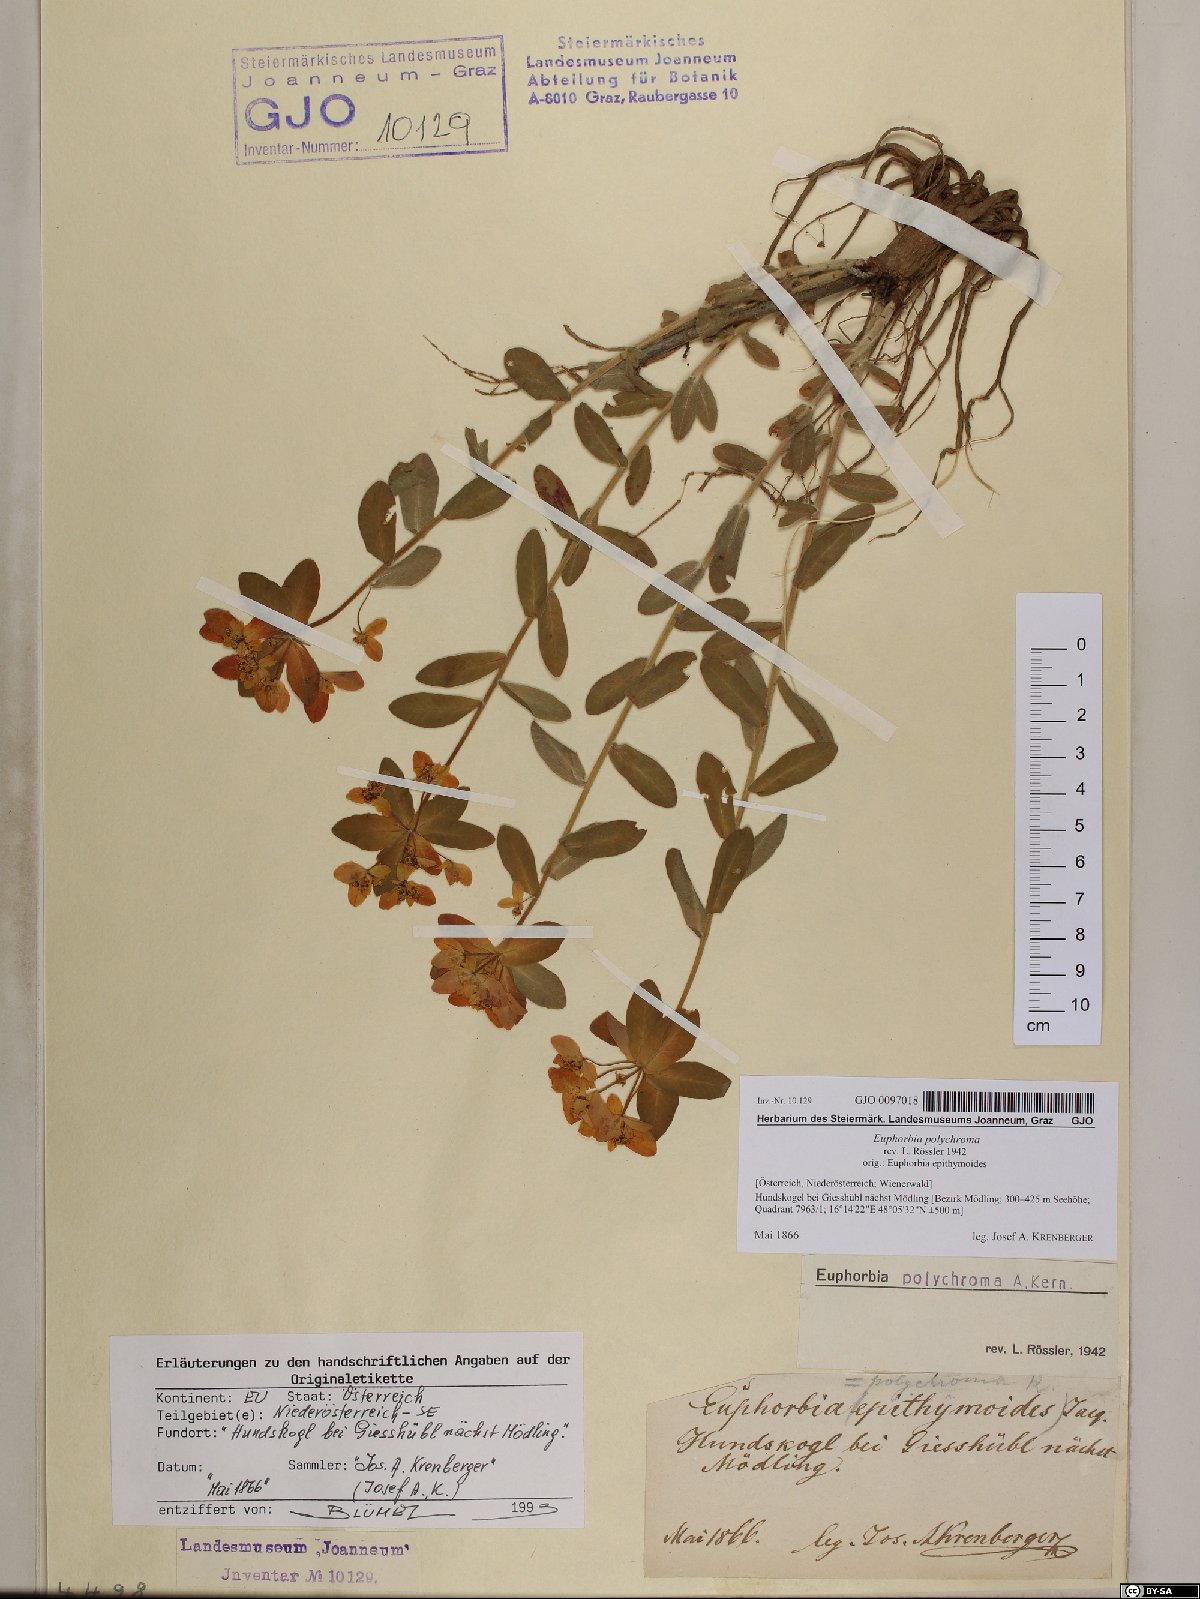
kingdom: Plantae
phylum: Tracheophyta
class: Magnoliopsida
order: Malpighiales
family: Euphorbiaceae
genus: Euphorbia
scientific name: Euphorbia epithymoides
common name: Cushion spurge
